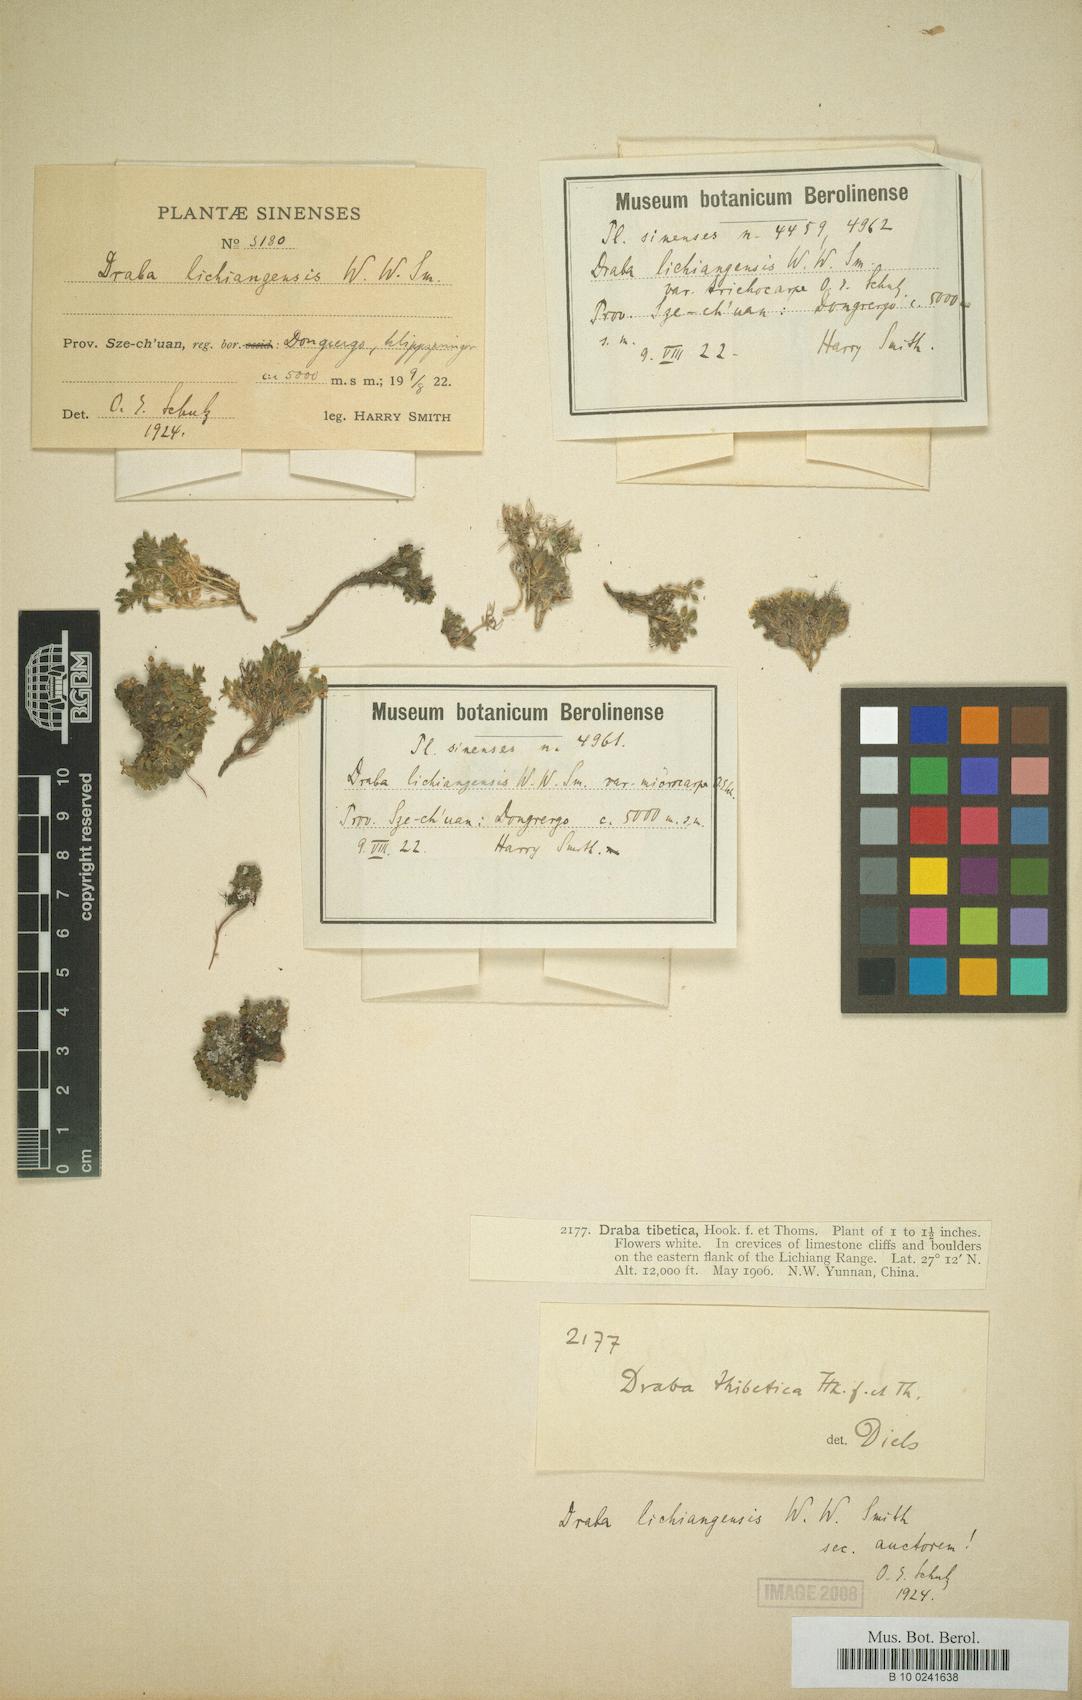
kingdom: Plantae
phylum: Tracheophyta
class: Magnoliopsida
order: Brassicales
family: Brassicaceae
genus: Draba
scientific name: Draba lichiangensis
